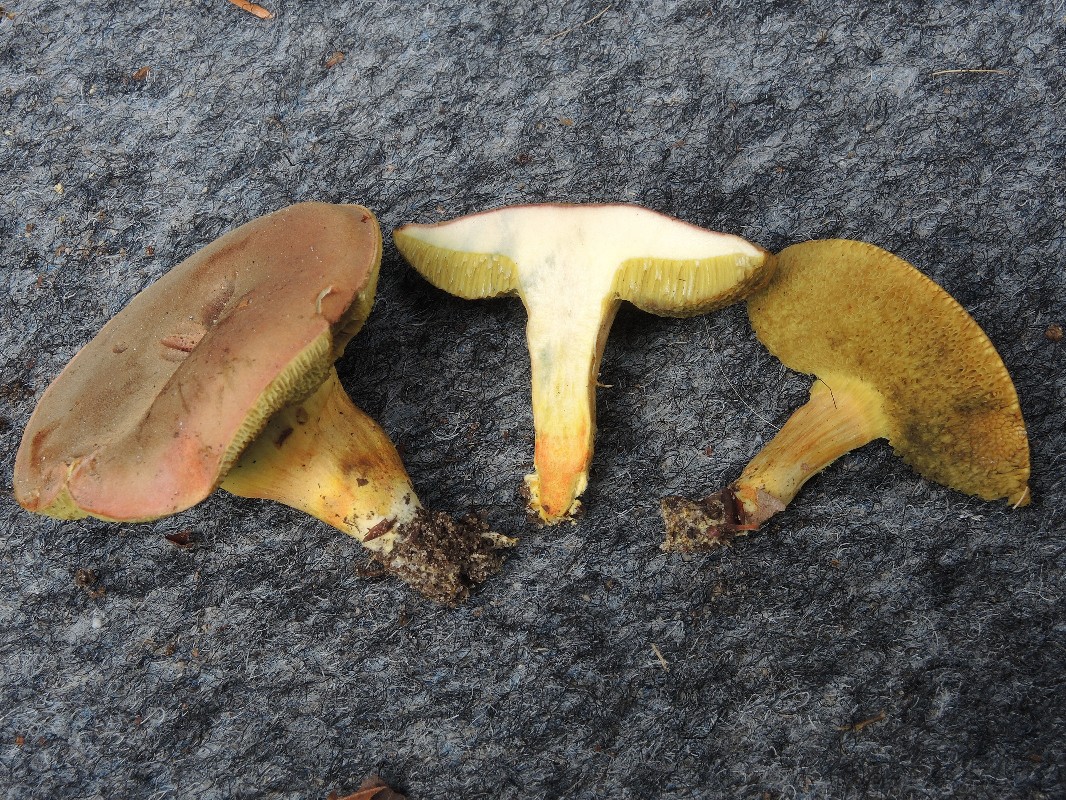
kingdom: Fungi
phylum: Basidiomycota
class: Agaricomycetes
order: Boletales
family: Boletaceae
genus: Hortiboletus
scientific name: Hortiboletus engelii
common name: fersken-rørhat
